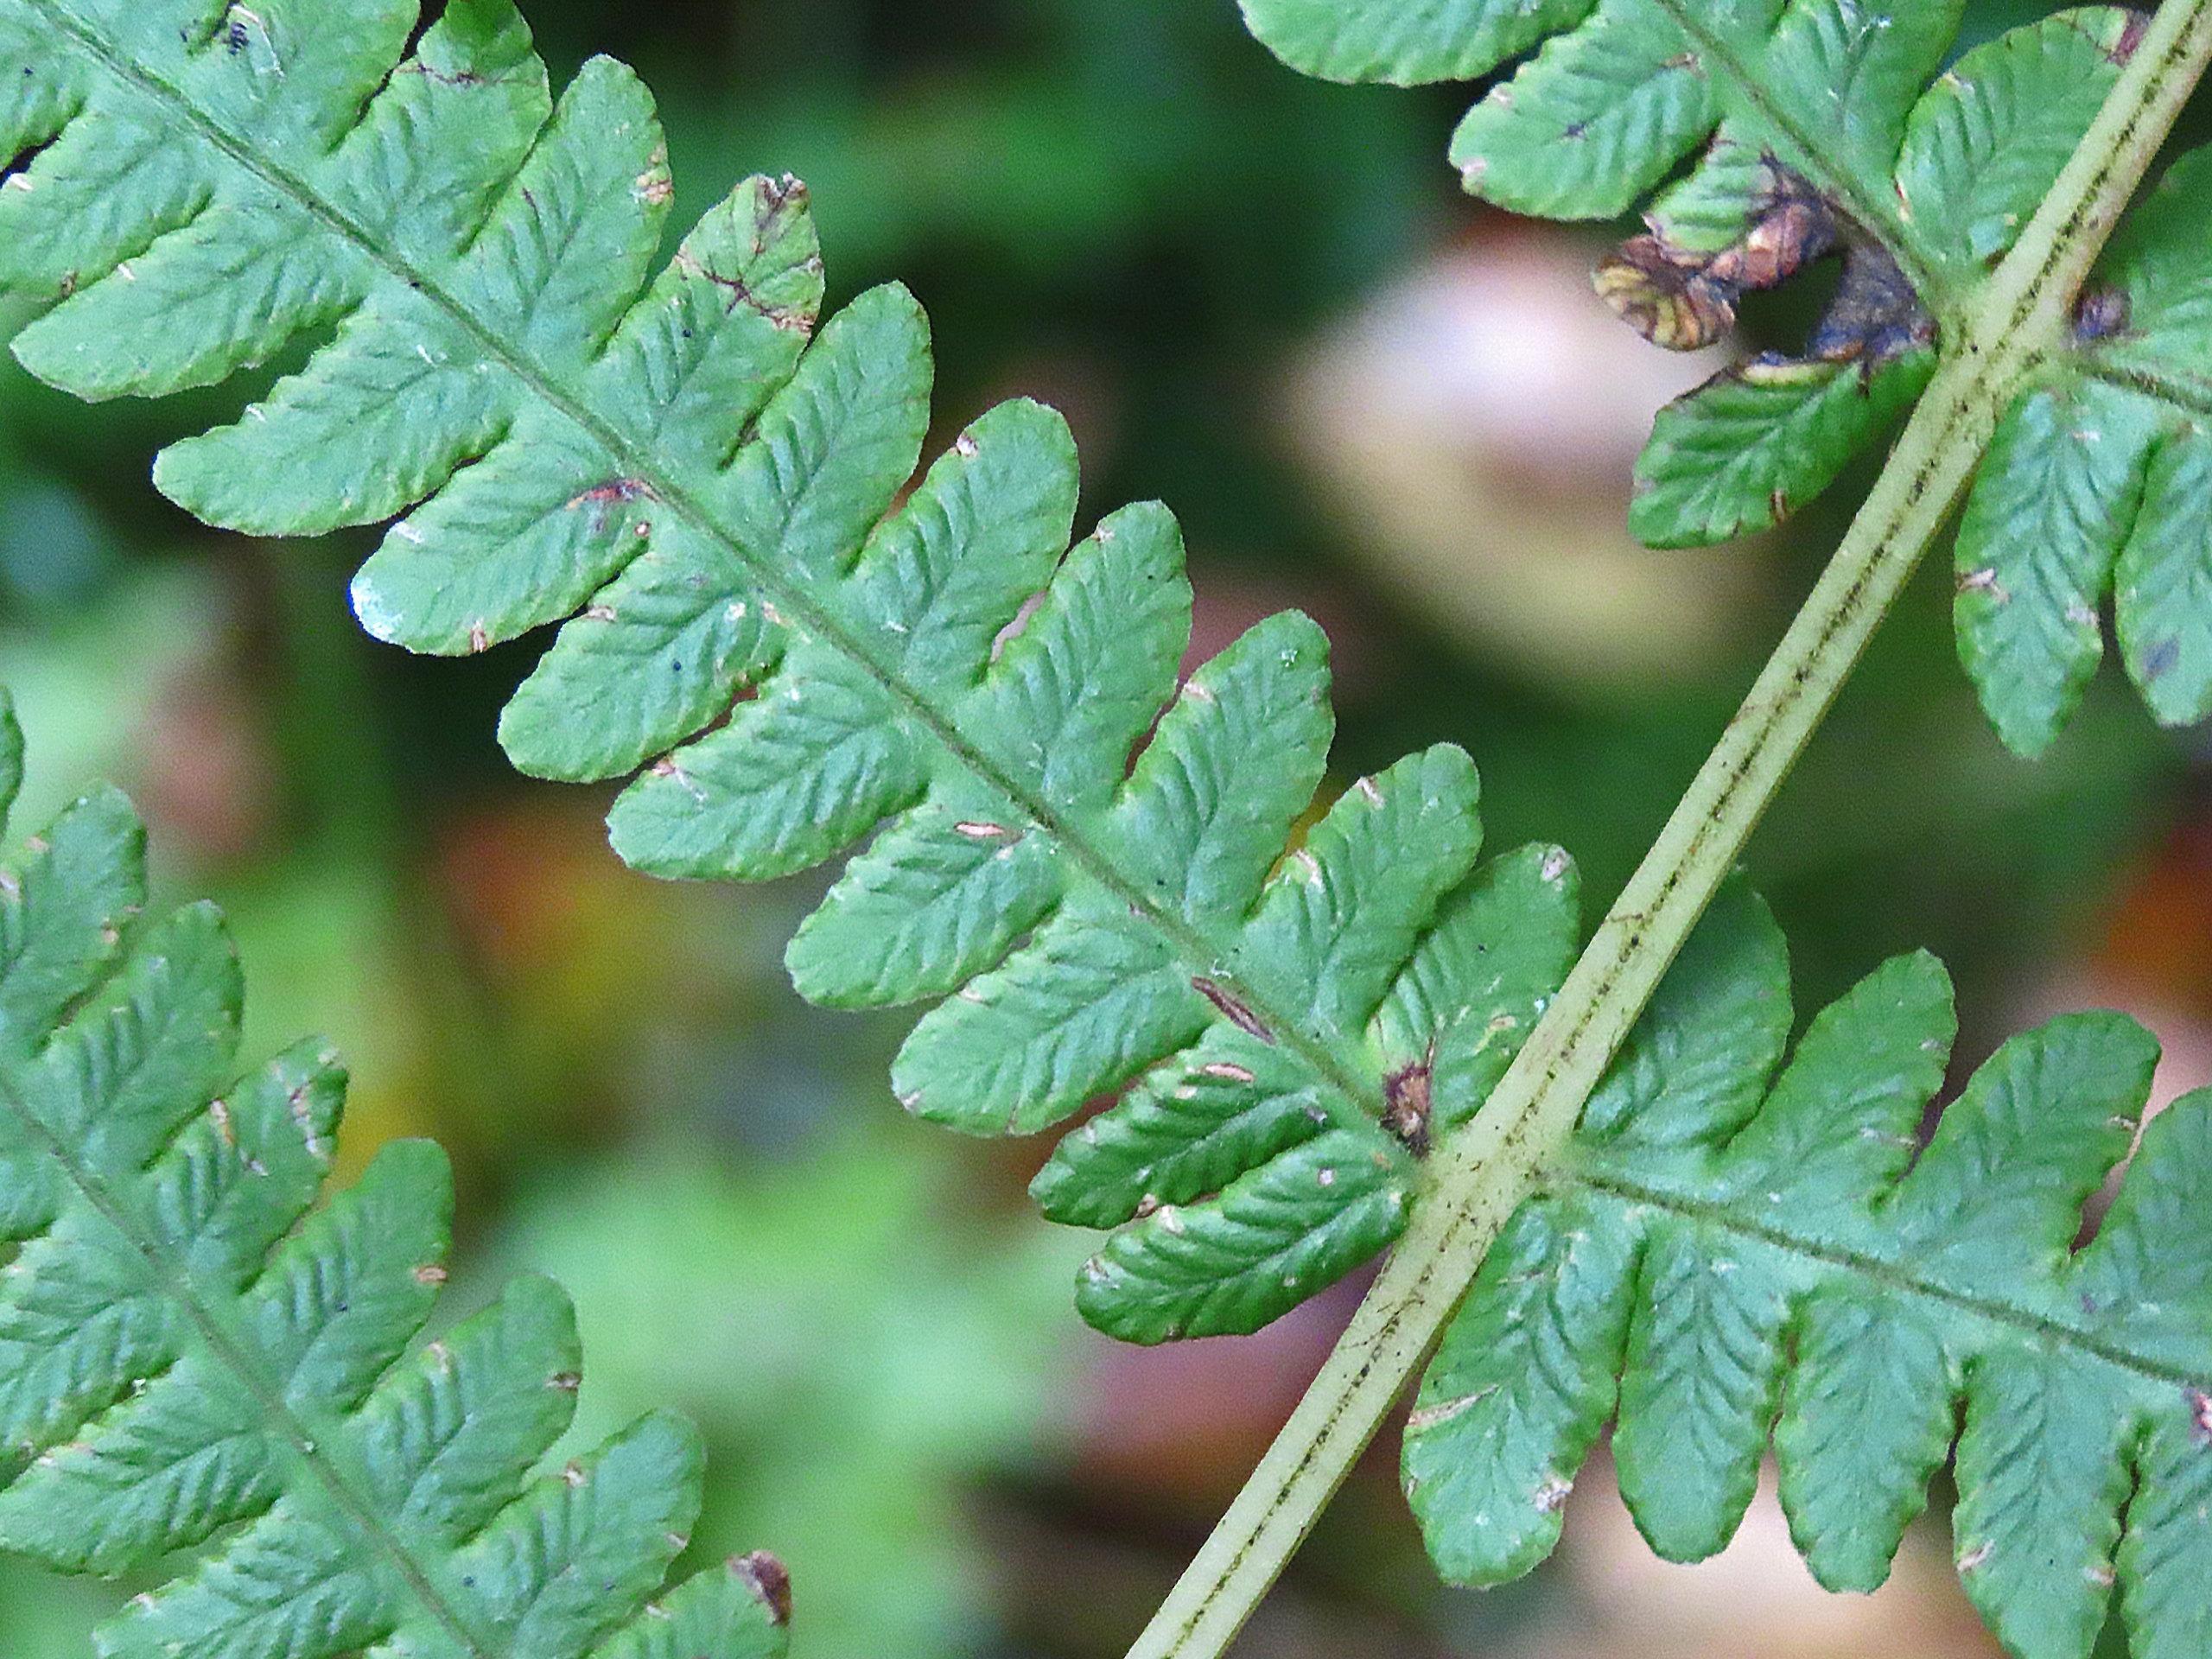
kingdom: Plantae
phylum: Tracheophyta
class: Polypodiopsida
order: Polypodiales
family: Thelypteridaceae
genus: Oreopteris
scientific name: Oreopteris limbosperma
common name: Bjergmangeløv
